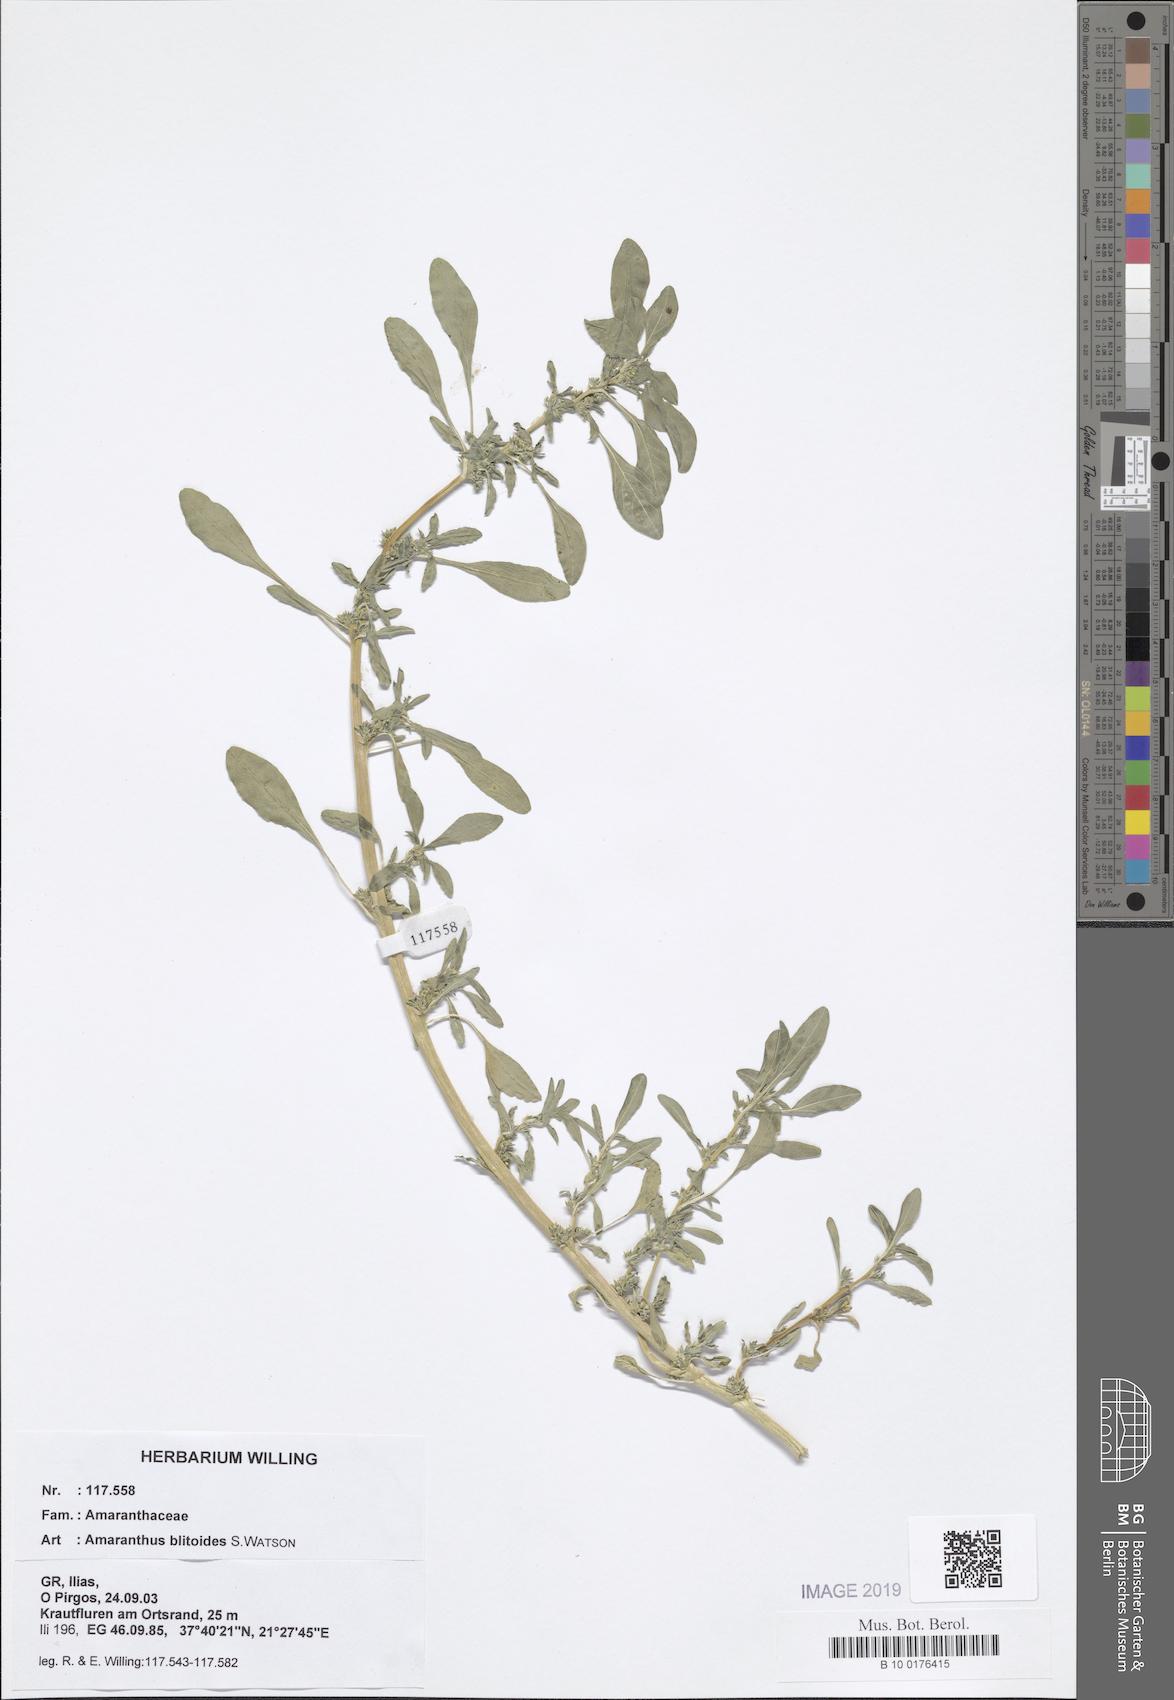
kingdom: Plantae
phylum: Tracheophyta
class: Magnoliopsida
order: Caryophyllales
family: Amaranthaceae
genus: Amaranthus
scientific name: Amaranthus blitoides
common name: Prostrate pigweed
